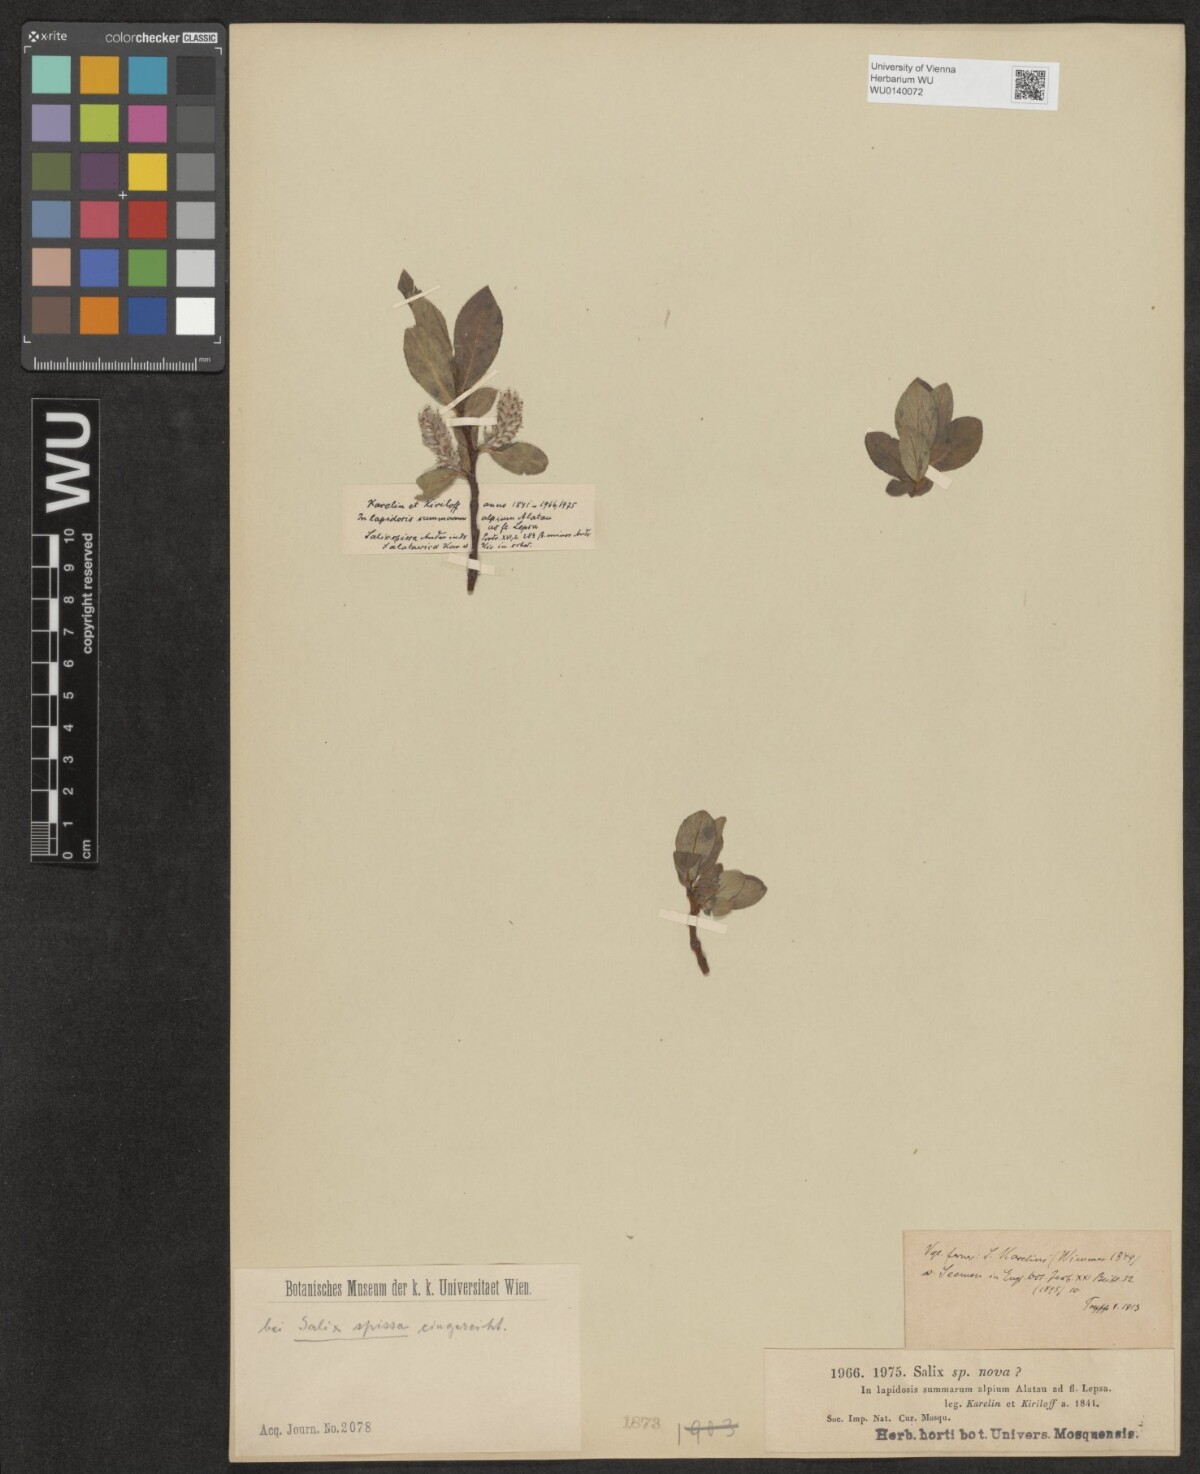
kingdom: Plantae
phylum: Tracheophyta
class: Magnoliopsida
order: Malpighiales
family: Salicaceae
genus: Salix
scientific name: Salix alatavica
